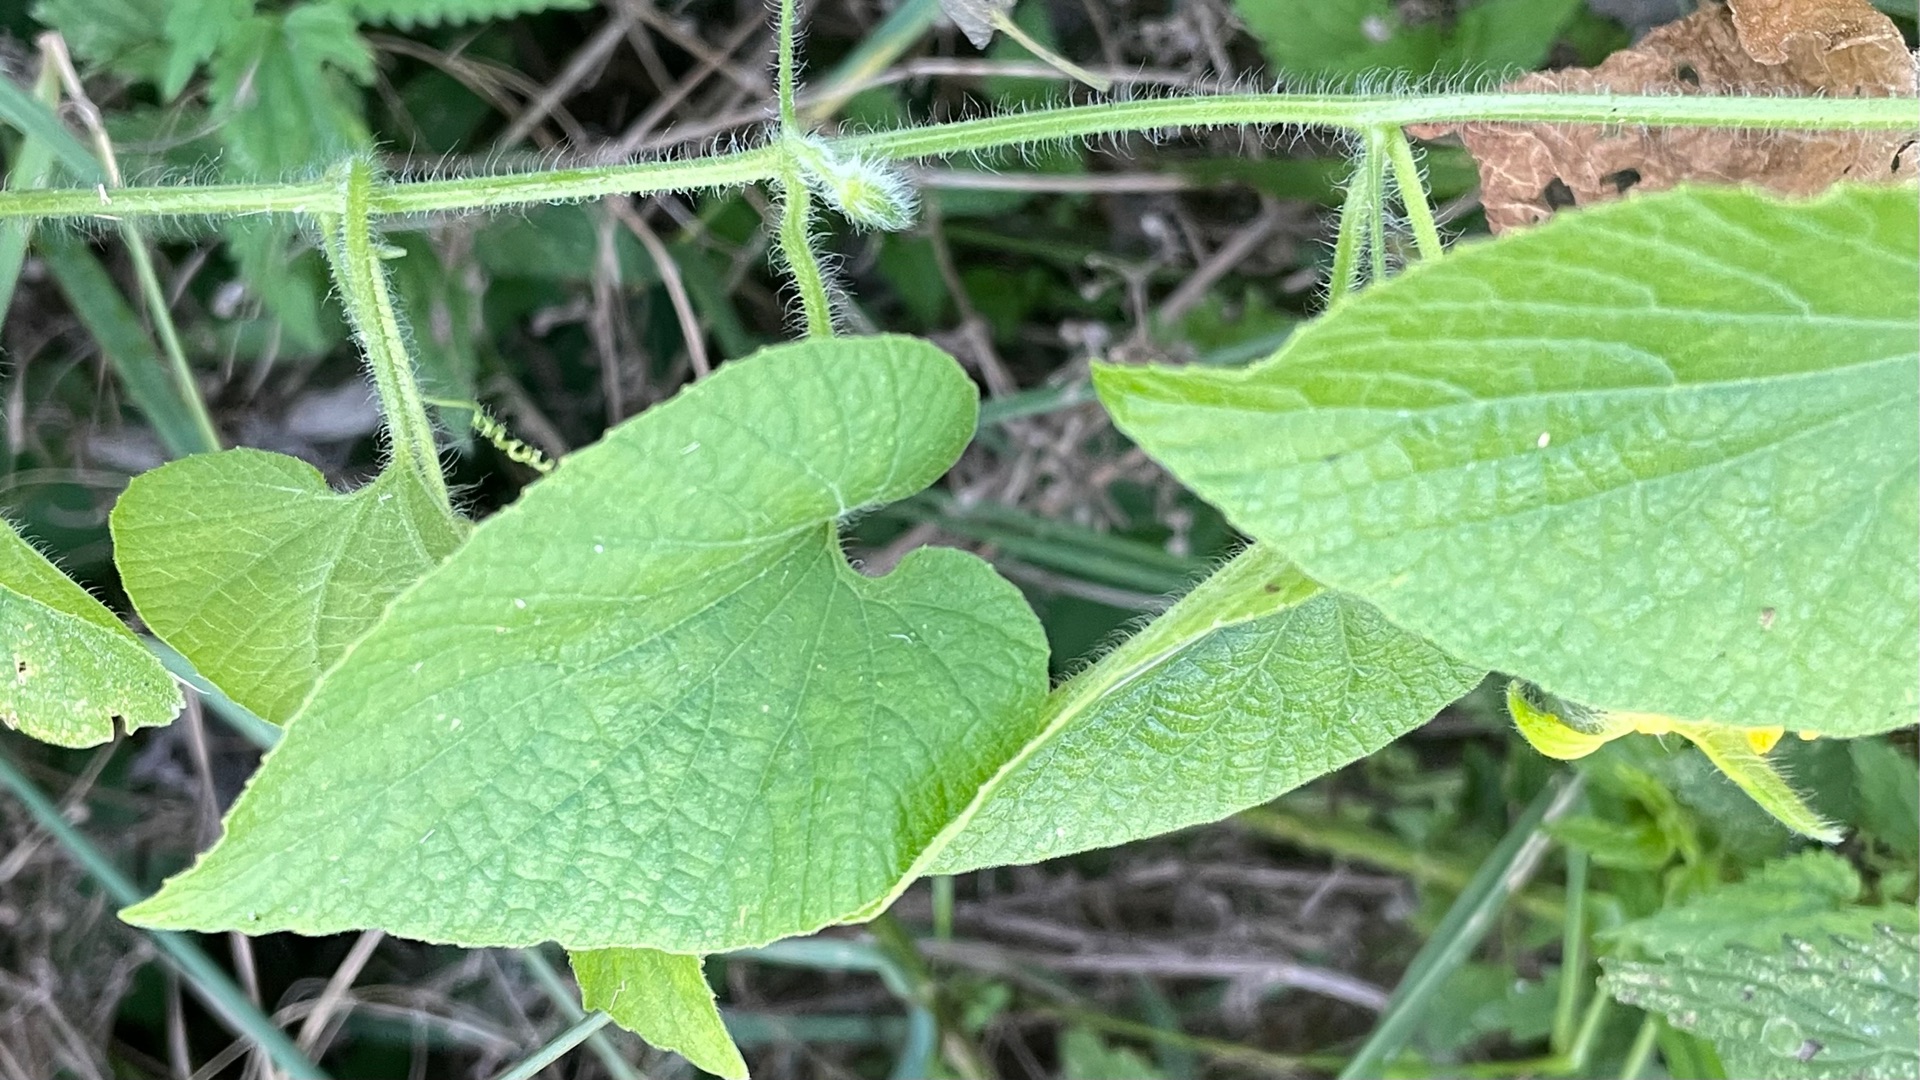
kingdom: Plantae
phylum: Tracheophyta
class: Magnoliopsida
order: Cucurbitales
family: Cucurbitaceae
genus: Thladiantha
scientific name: Thladiantha dubia
